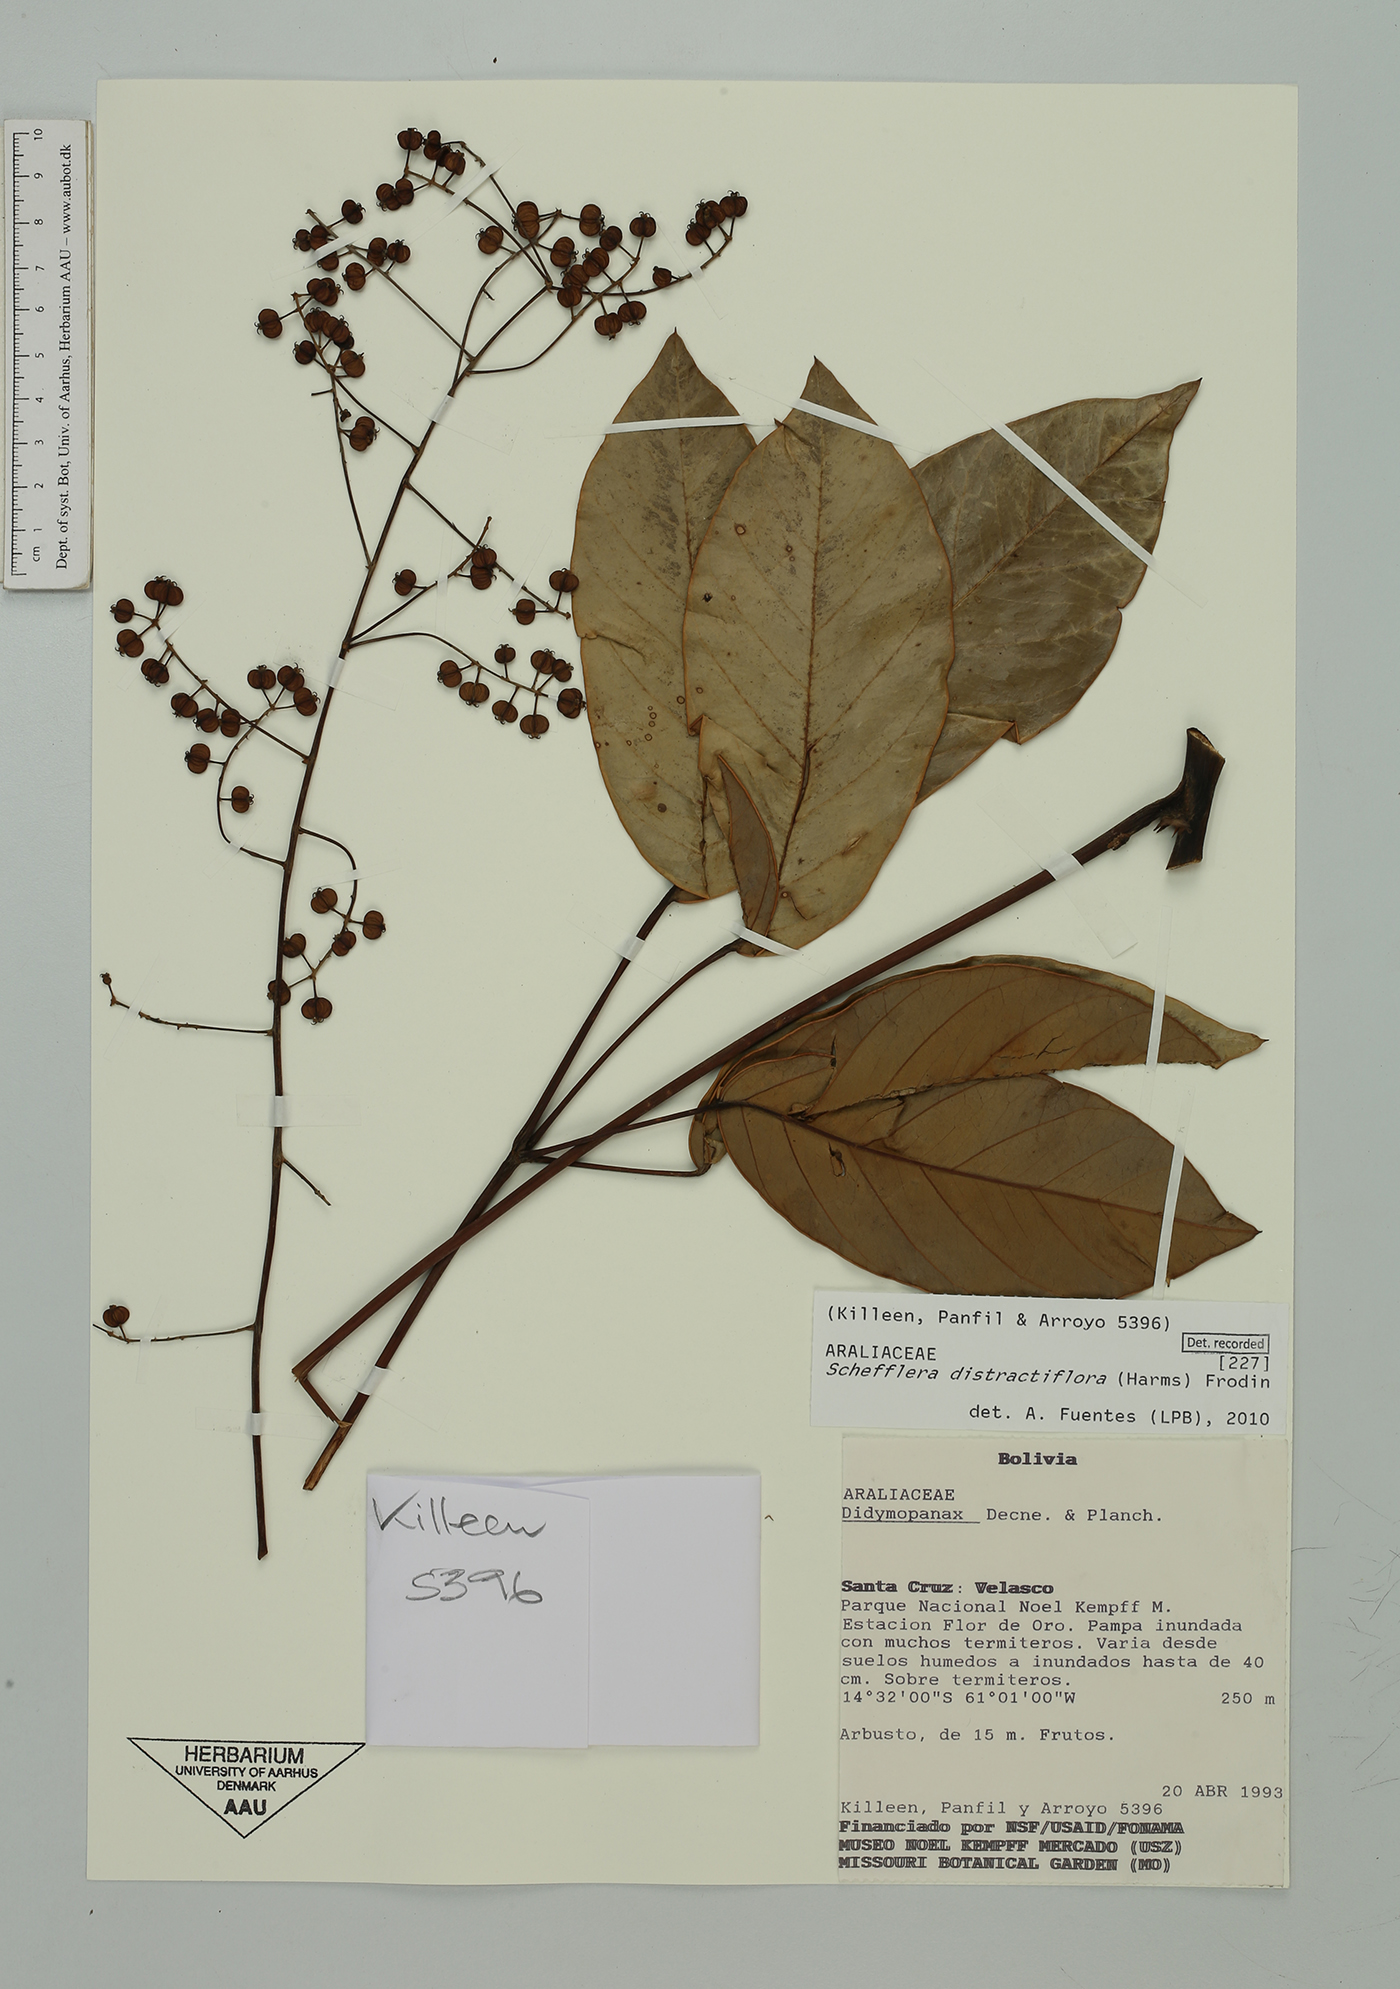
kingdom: Plantae
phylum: Tracheophyta
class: Magnoliopsida
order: Apiales
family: Araliaceae
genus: Didymopanax
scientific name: Didymopanax distractiflorus
